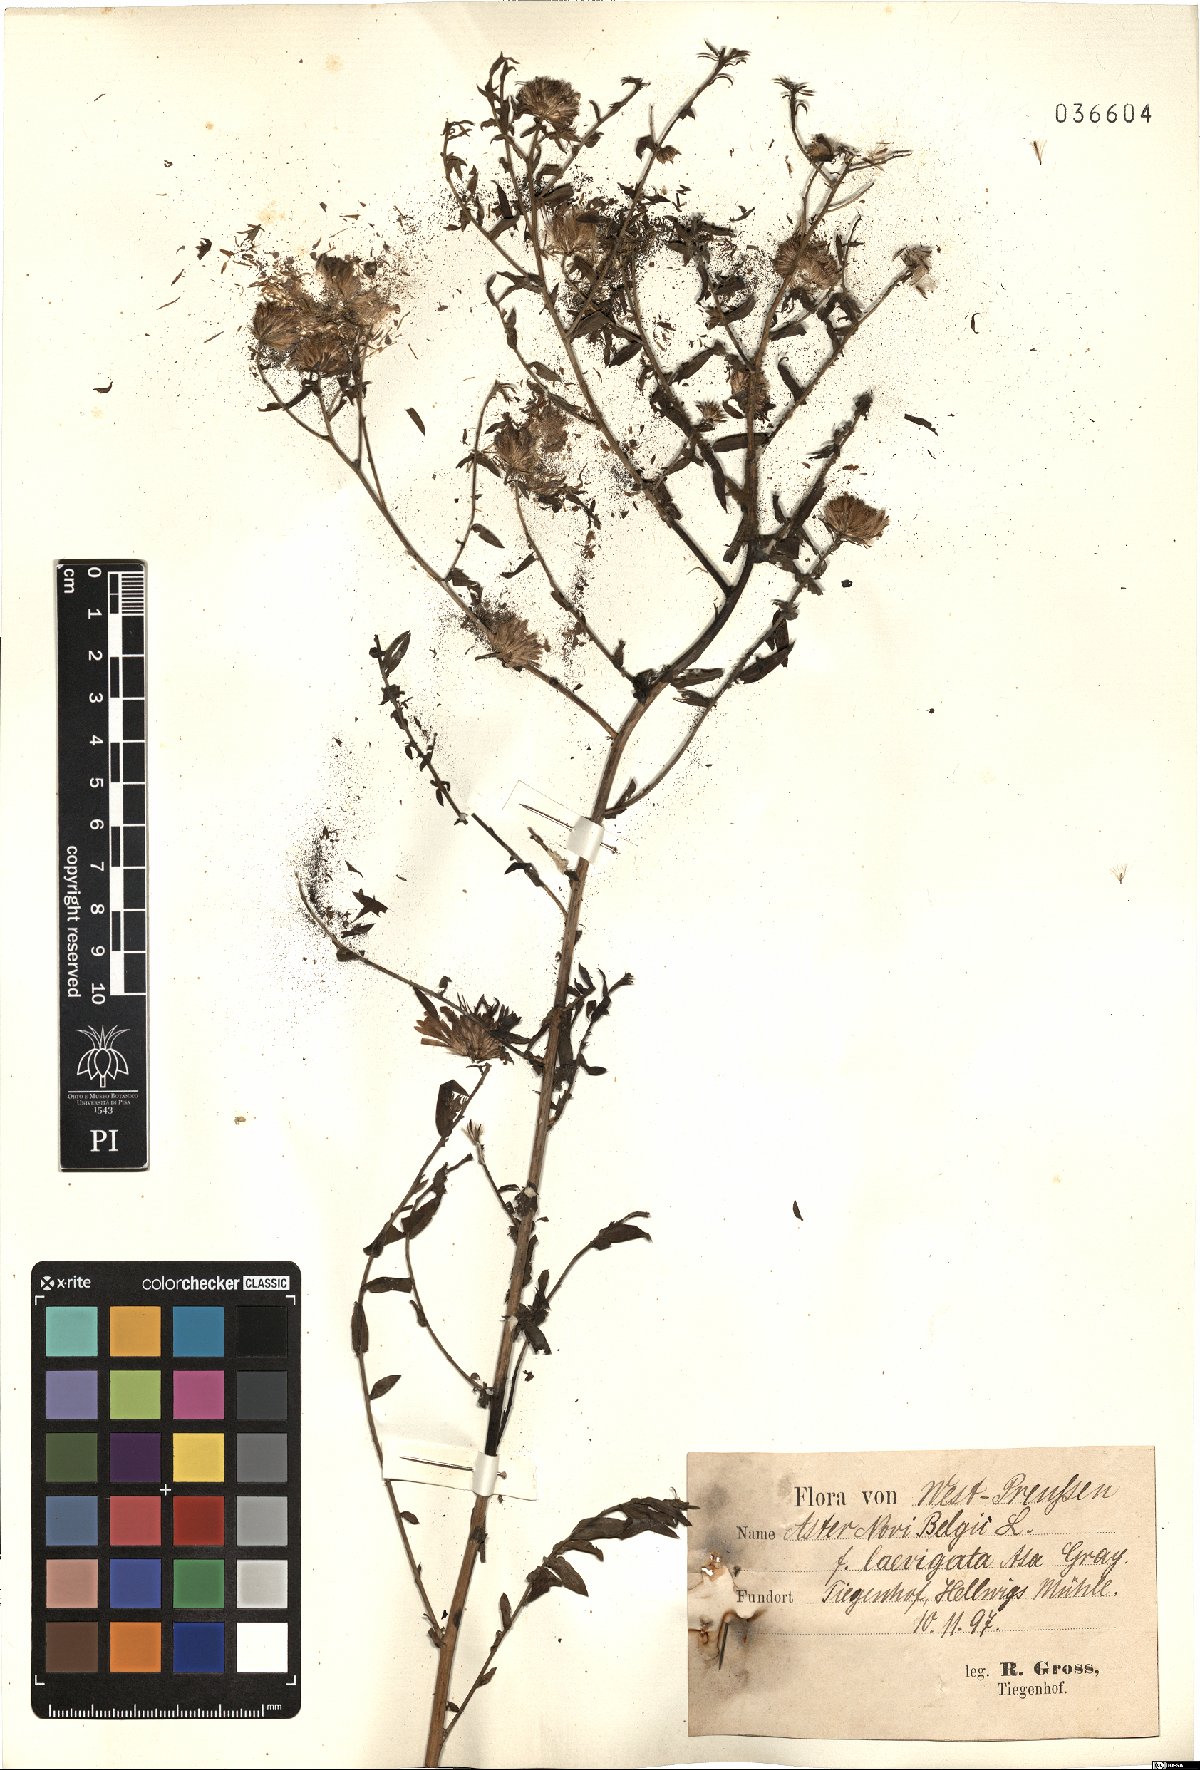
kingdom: Plantae
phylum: Tracheophyta
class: Magnoliopsida
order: Asterales
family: Asteraceae
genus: Symphyotrichum
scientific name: Symphyotrichum novi-belgii
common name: Michaelmas daisy
